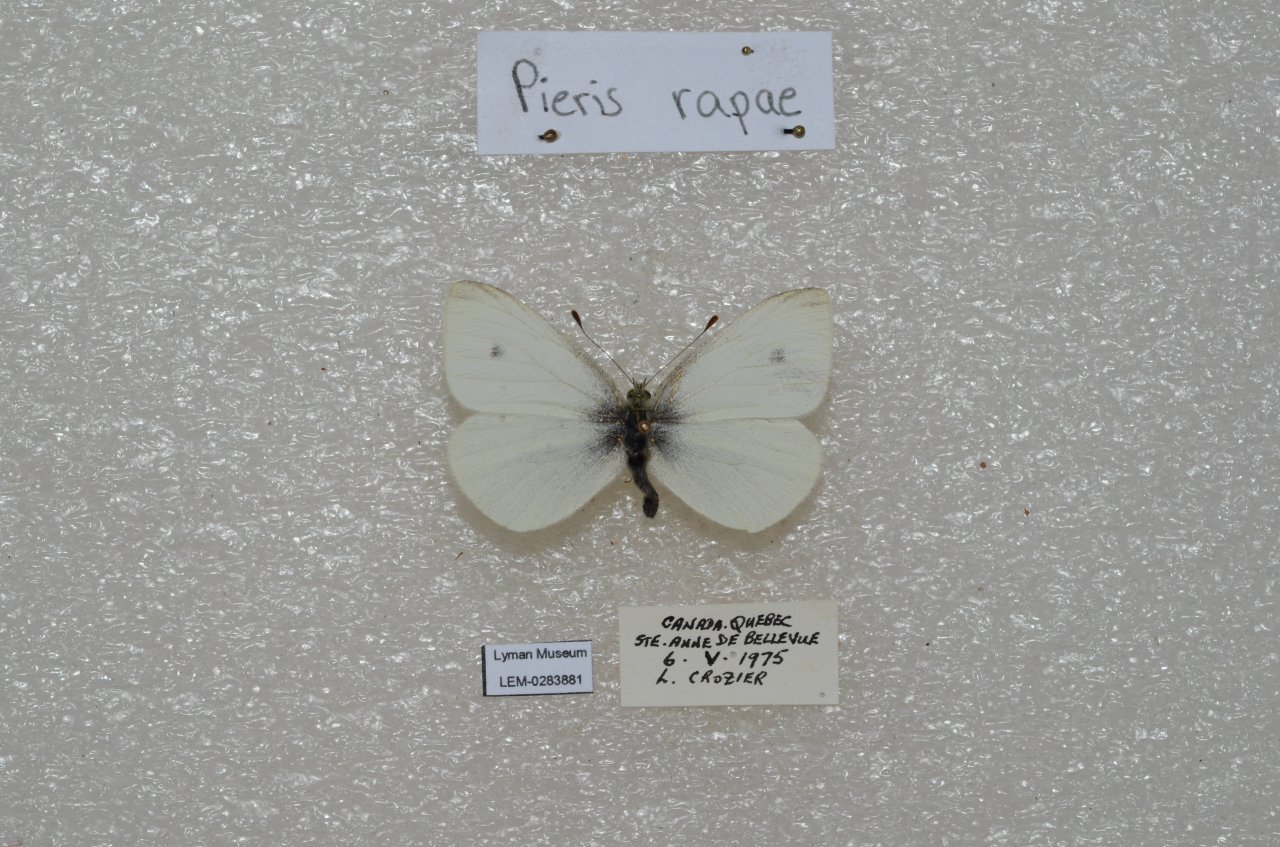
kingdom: Animalia
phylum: Arthropoda
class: Insecta
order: Lepidoptera
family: Pieridae
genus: Pieris
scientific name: Pieris rapae
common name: Cabbage White
